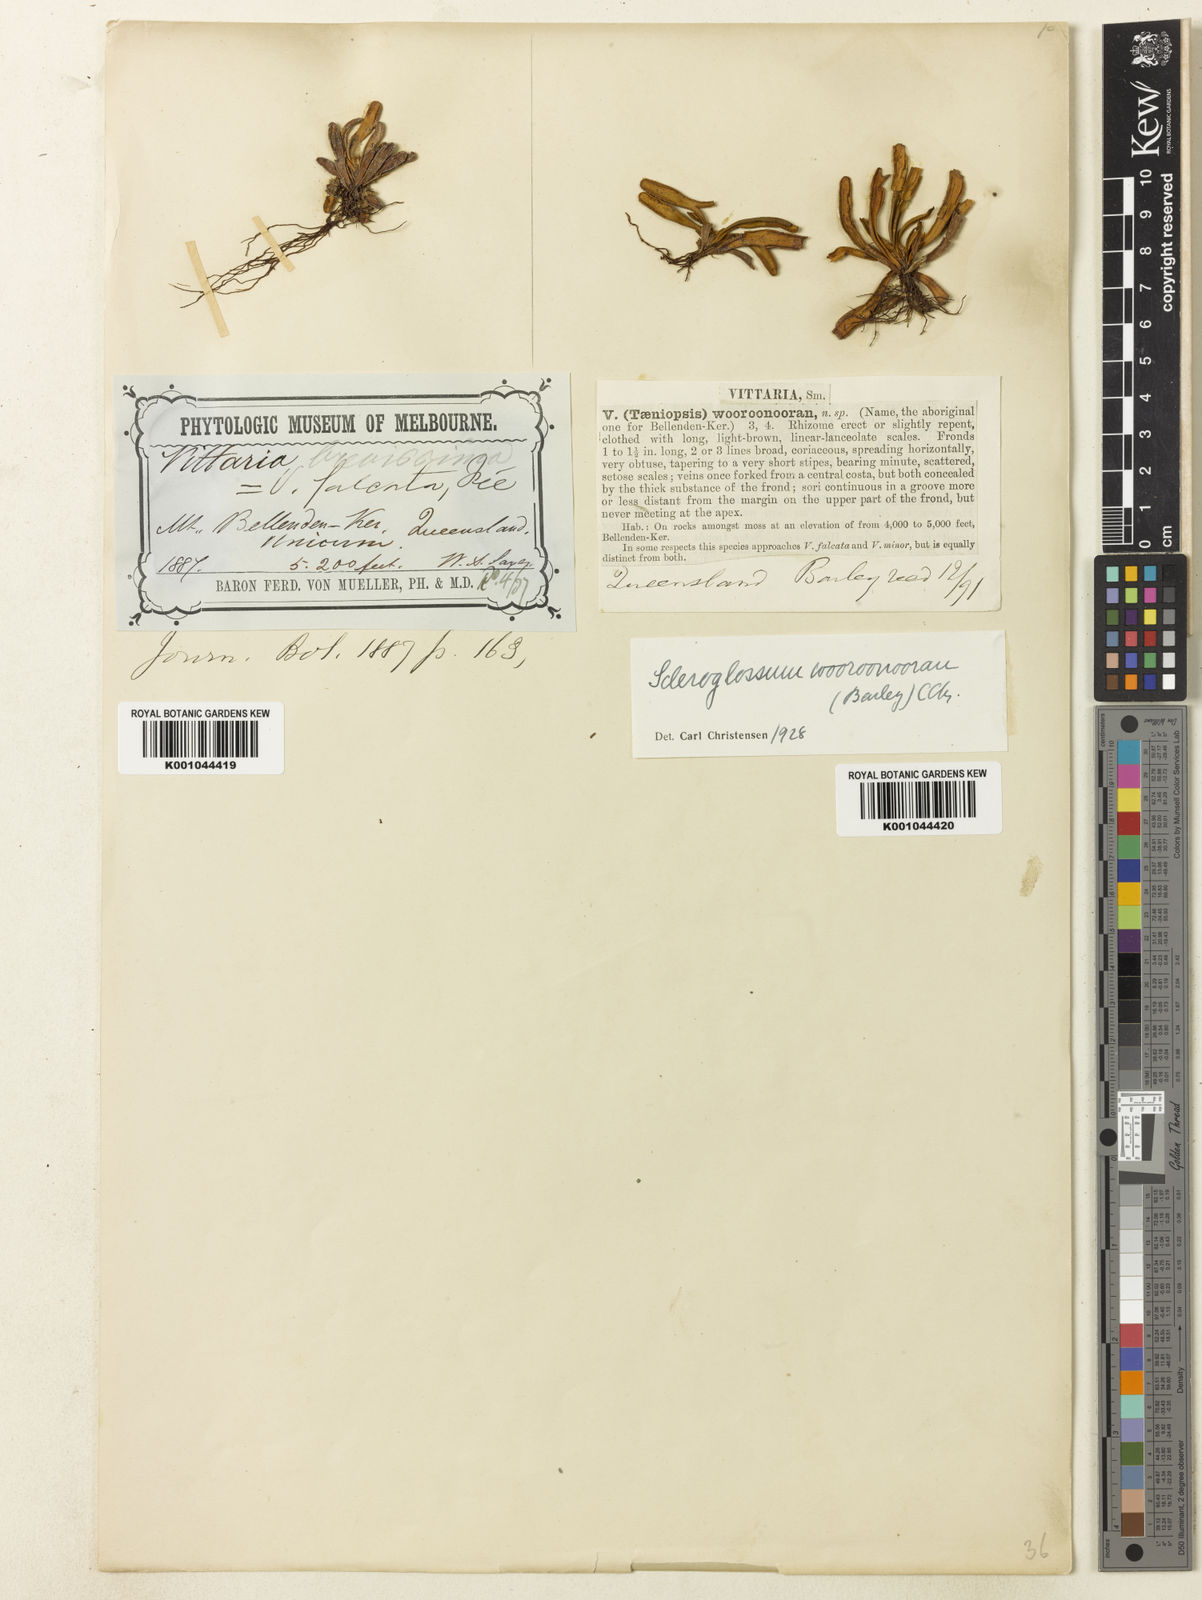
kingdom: Plantae
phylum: Tracheophyta
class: Polypodiopsida
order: Polypodiales
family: Polypodiaceae
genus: Scleroglossum
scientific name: Scleroglossum wooroonooran
